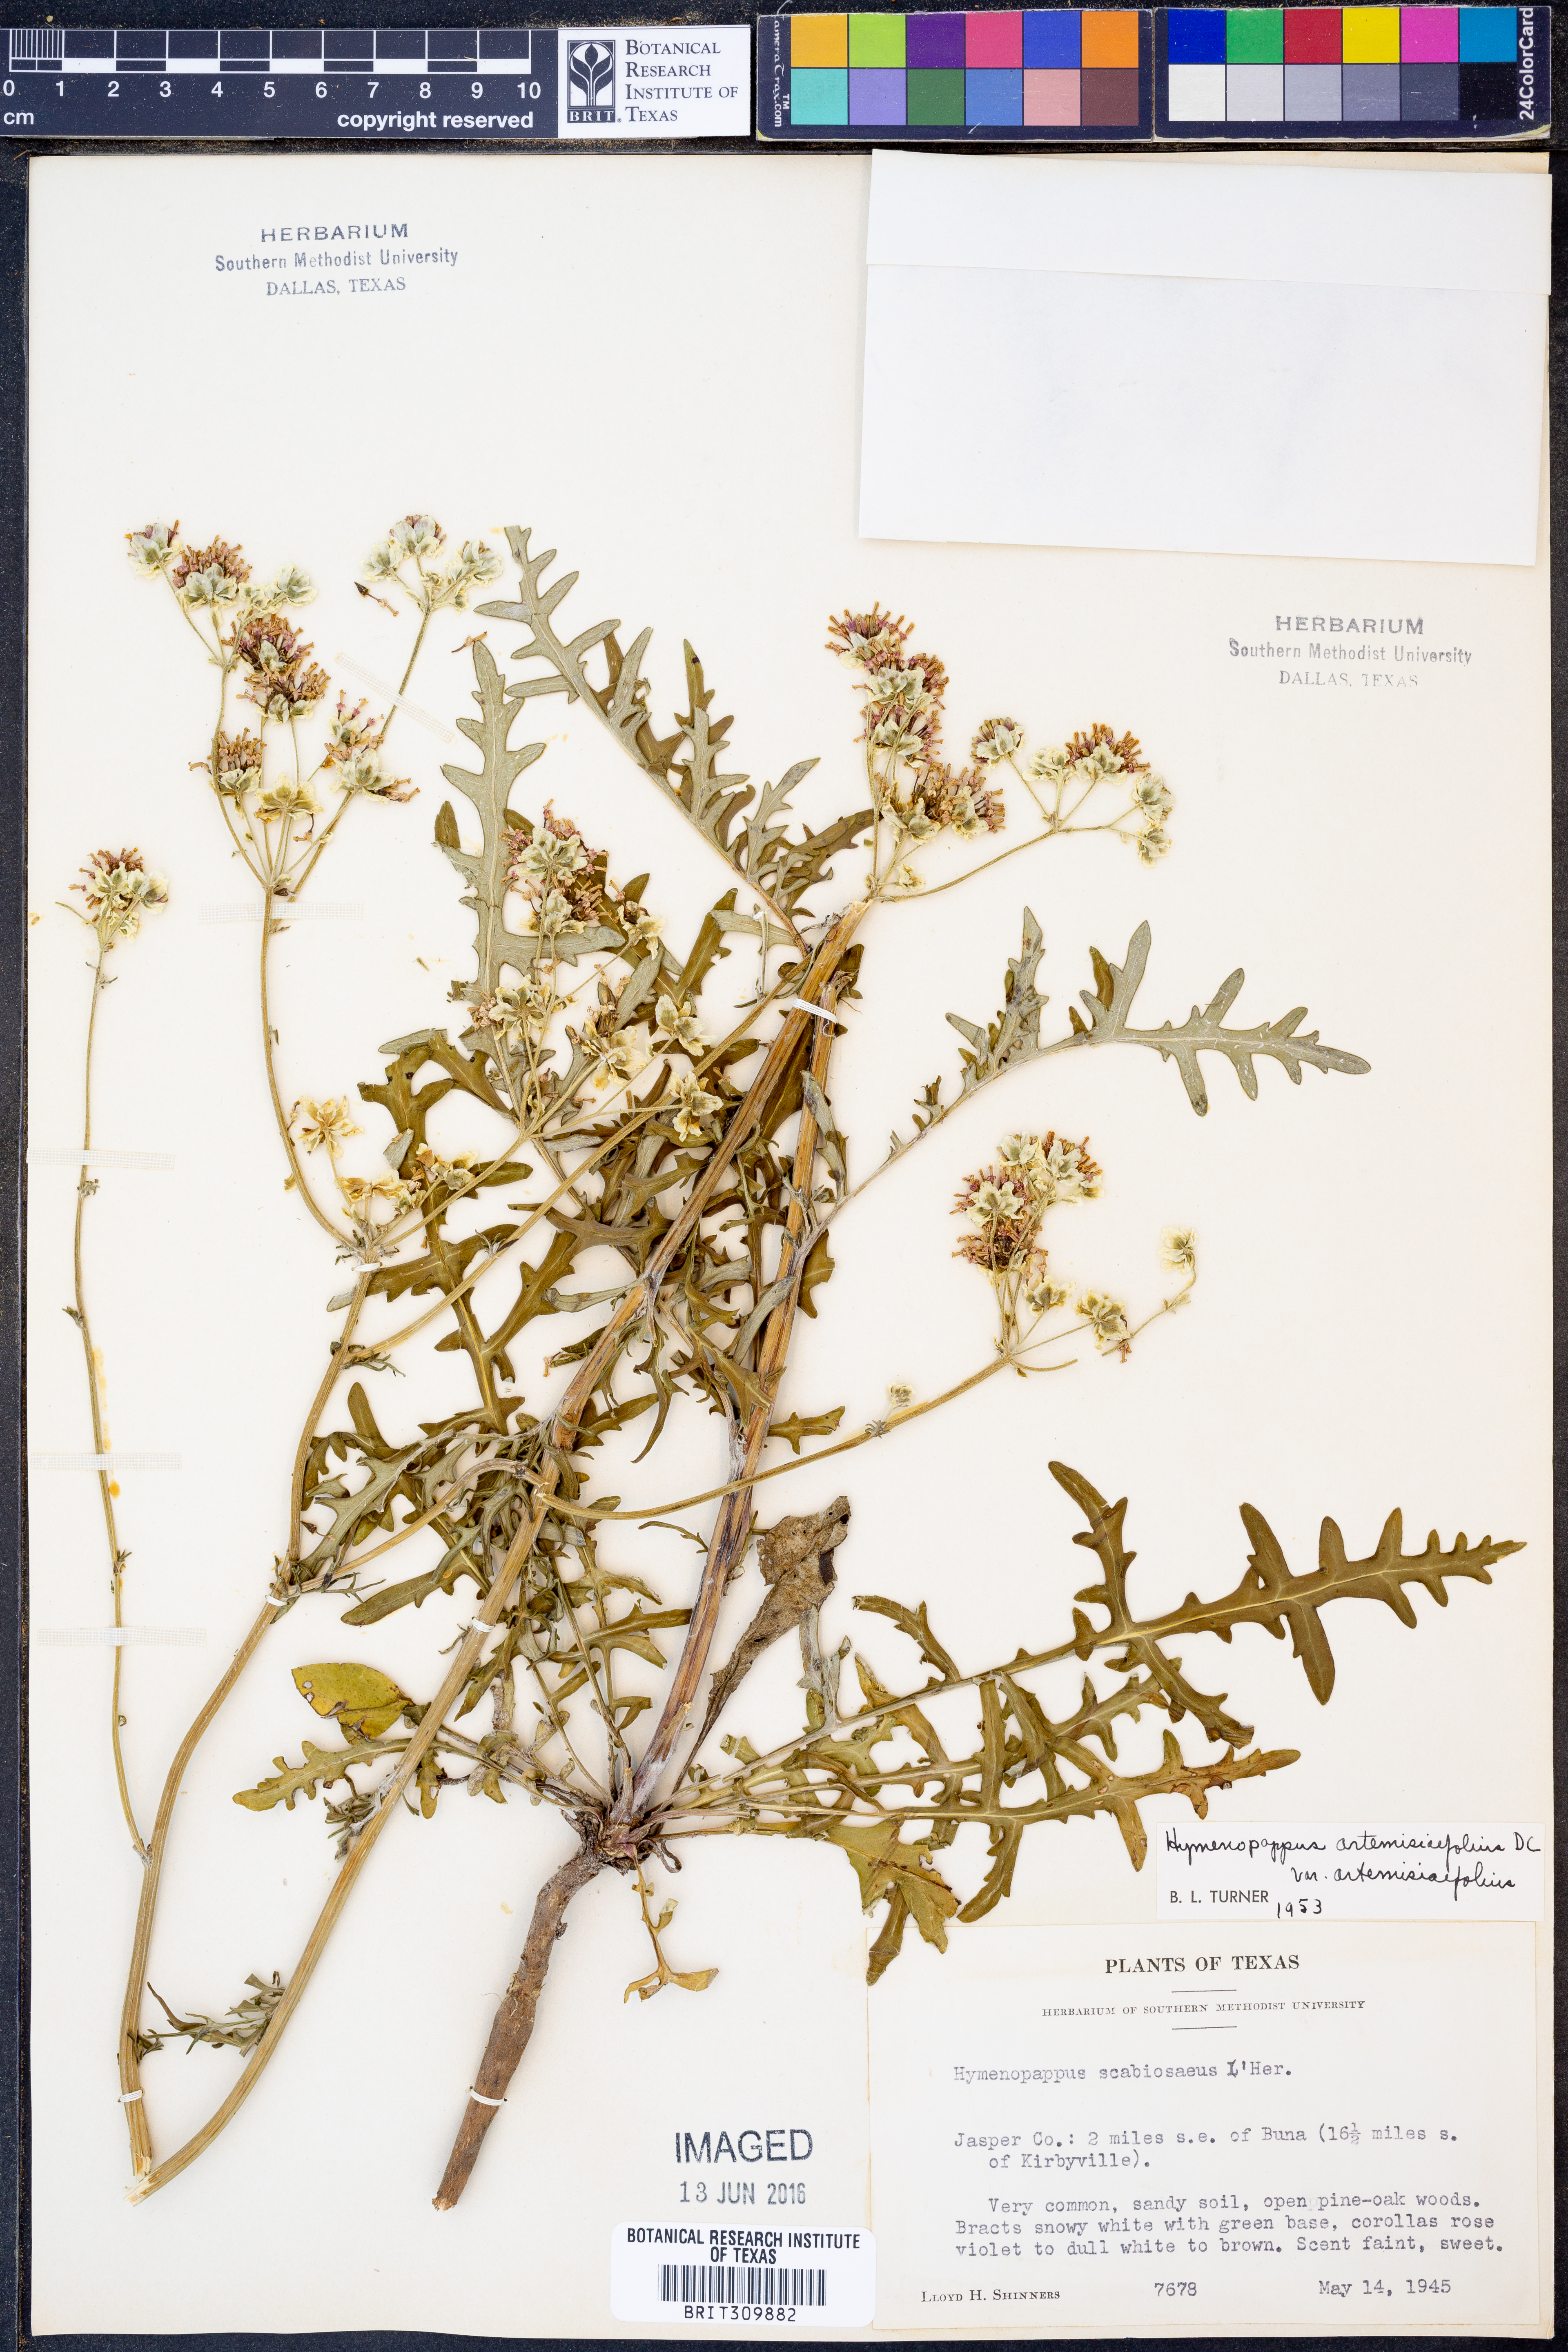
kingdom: Plantae
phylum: Tracheophyta
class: Magnoliopsida
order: Asterales
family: Asteraceae
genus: Hymenopappus
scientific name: Hymenopappus artemisiifolius
